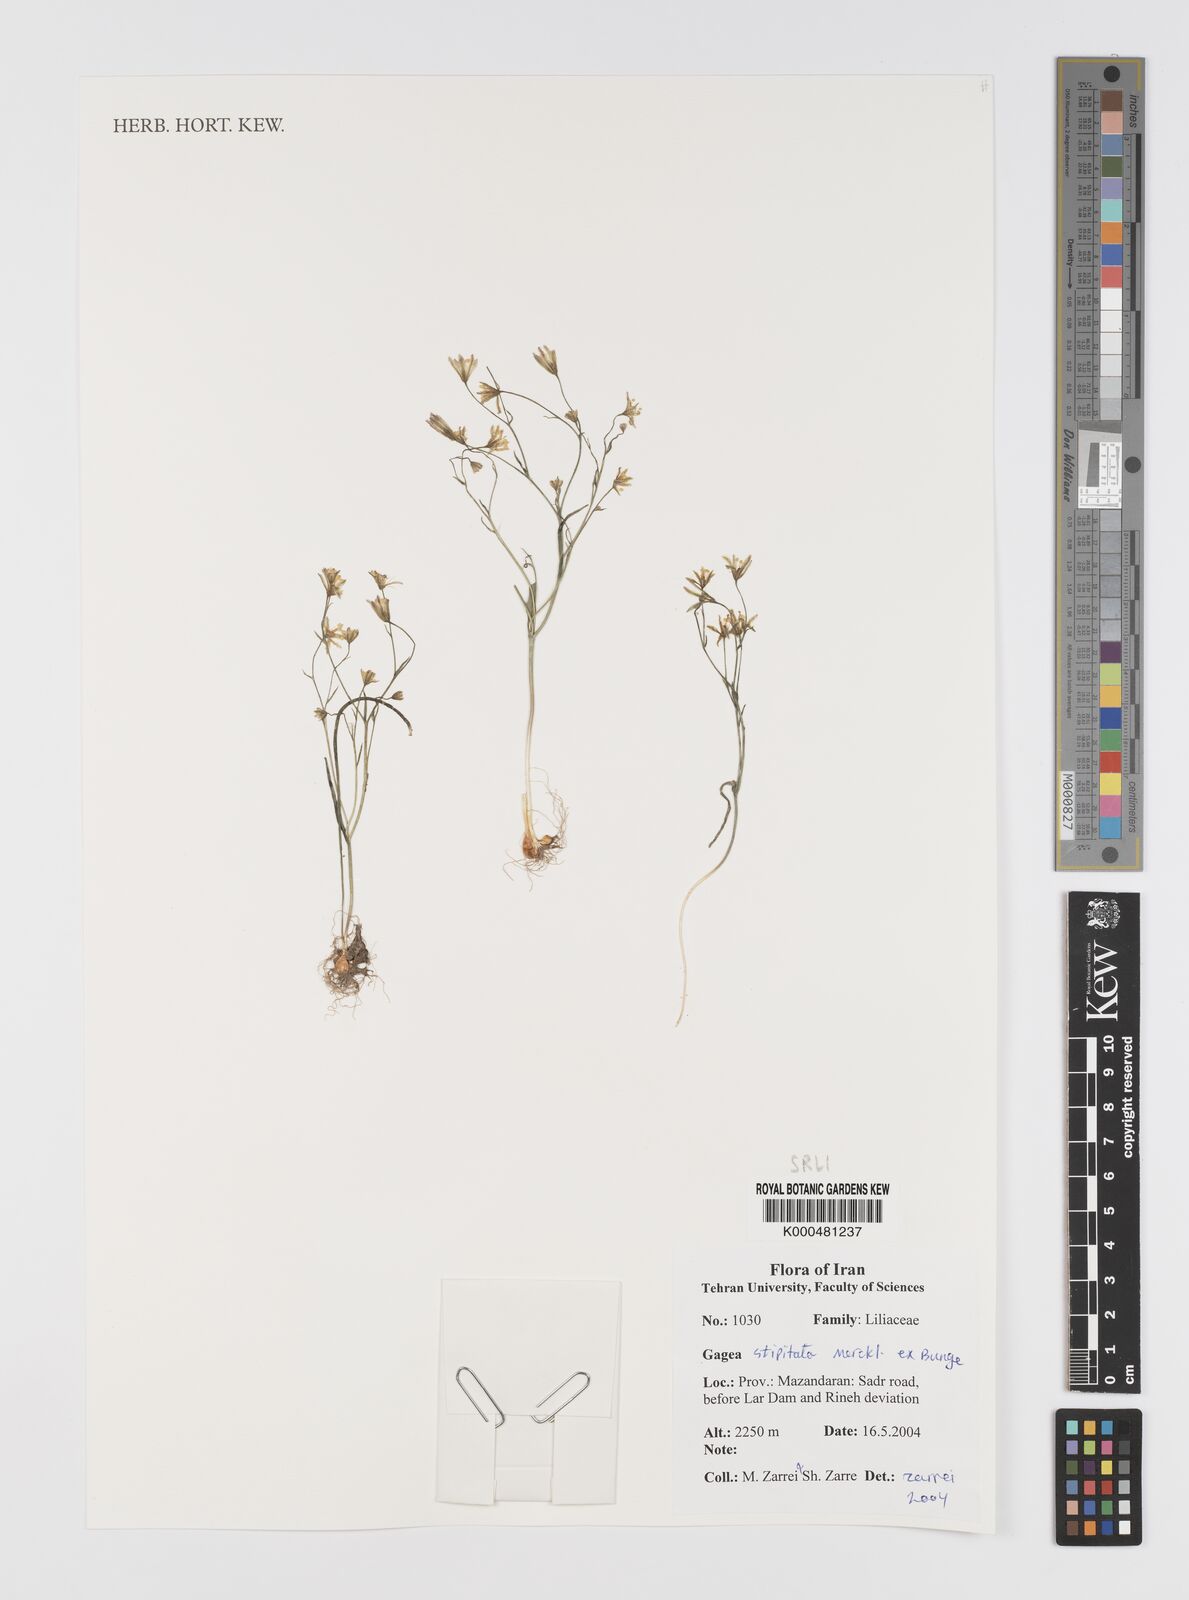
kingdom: Plantae
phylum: Tracheophyta
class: Liliopsida
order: Liliales
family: Liliaceae
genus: Gagea
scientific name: Gagea kunawurensis
